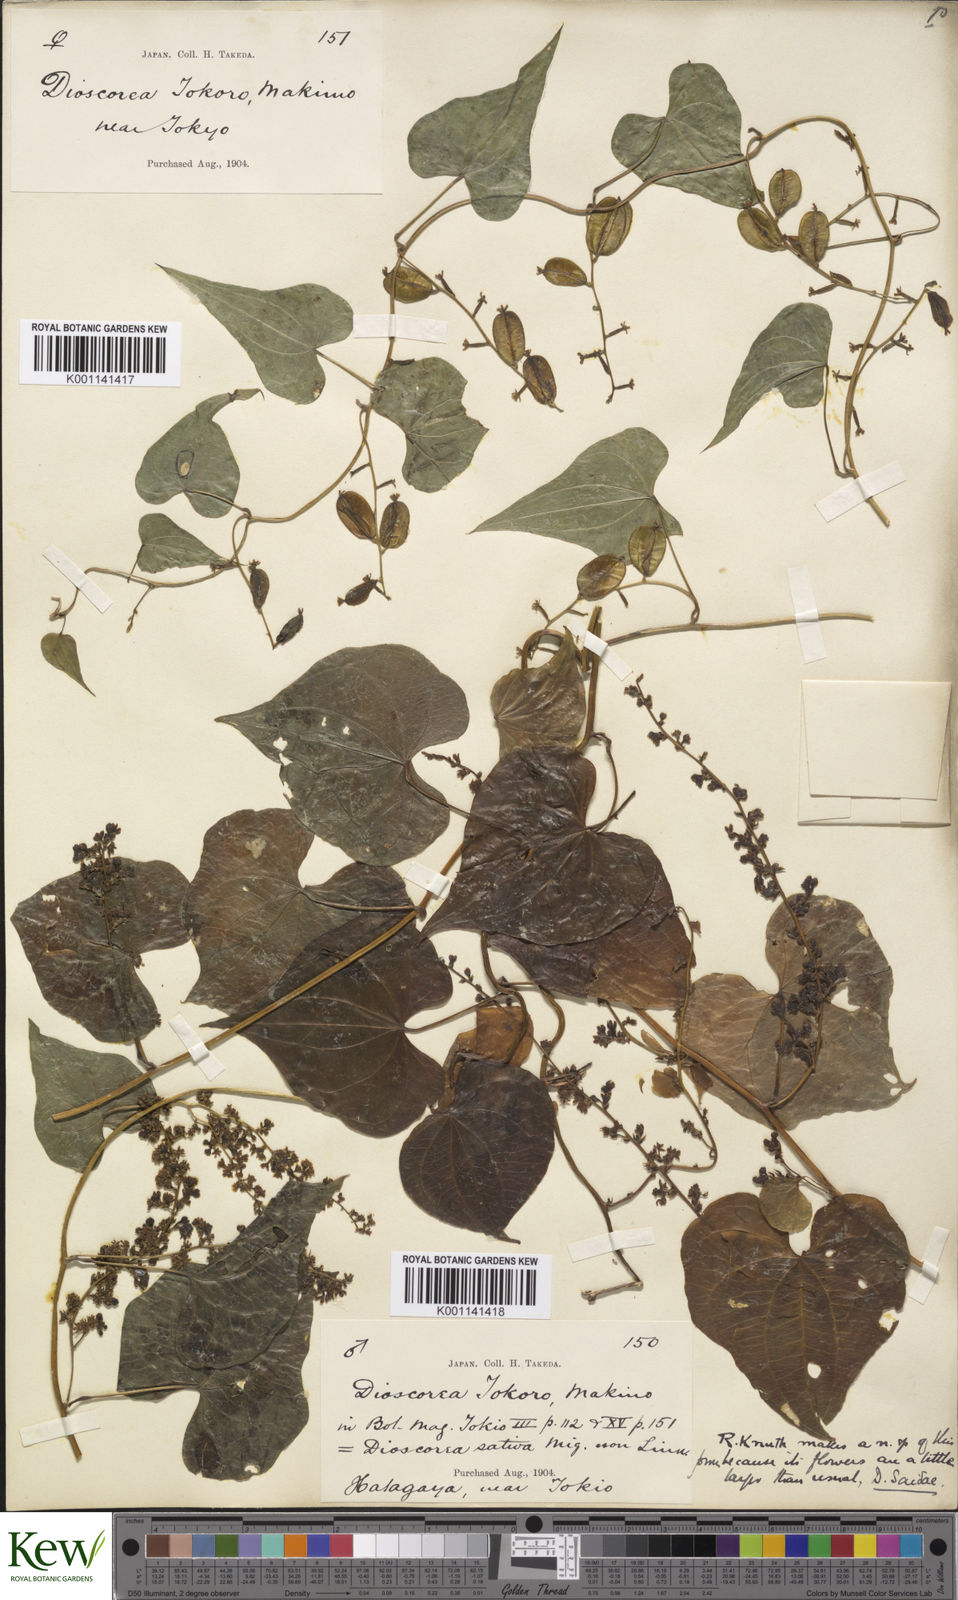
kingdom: Plantae
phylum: Tracheophyta
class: Liliopsida
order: Dioscoreales
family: Dioscoreaceae
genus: Dioscorea
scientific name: Dioscorea tokoro
